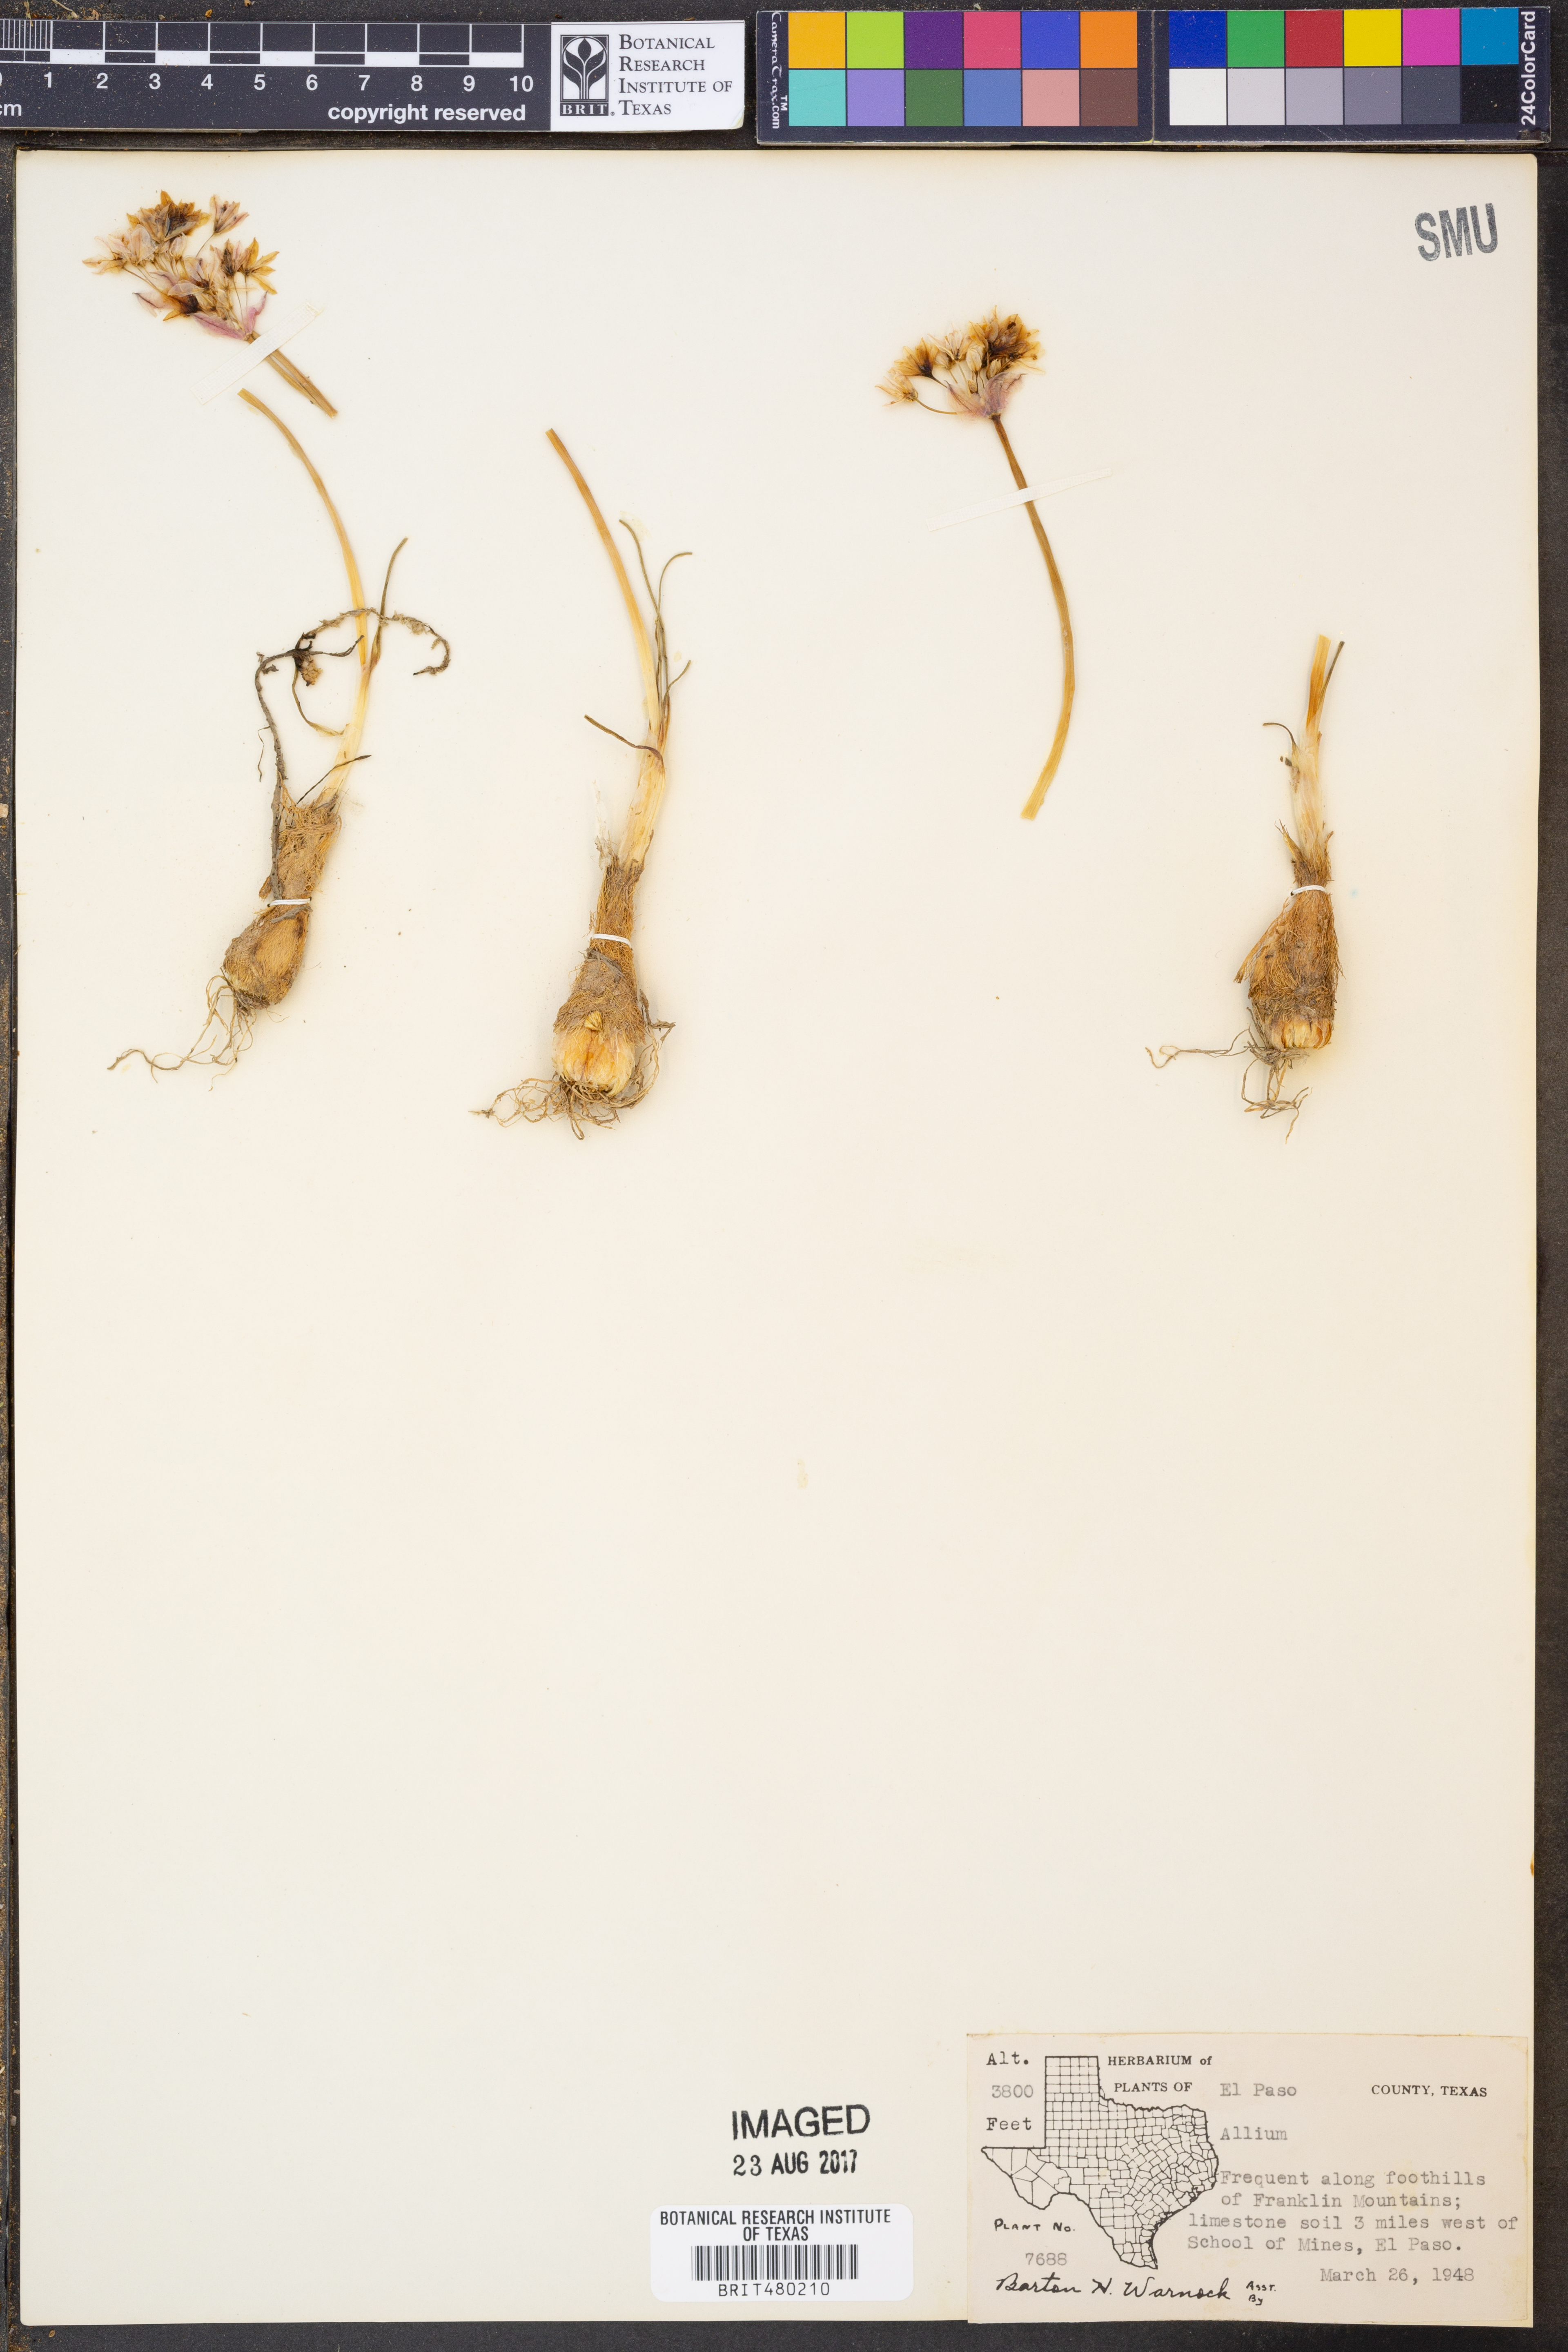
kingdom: Plantae
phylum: Tracheophyta
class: Liliopsida
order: Asparagales
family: Amaryllidaceae
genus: Allium
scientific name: Allium
